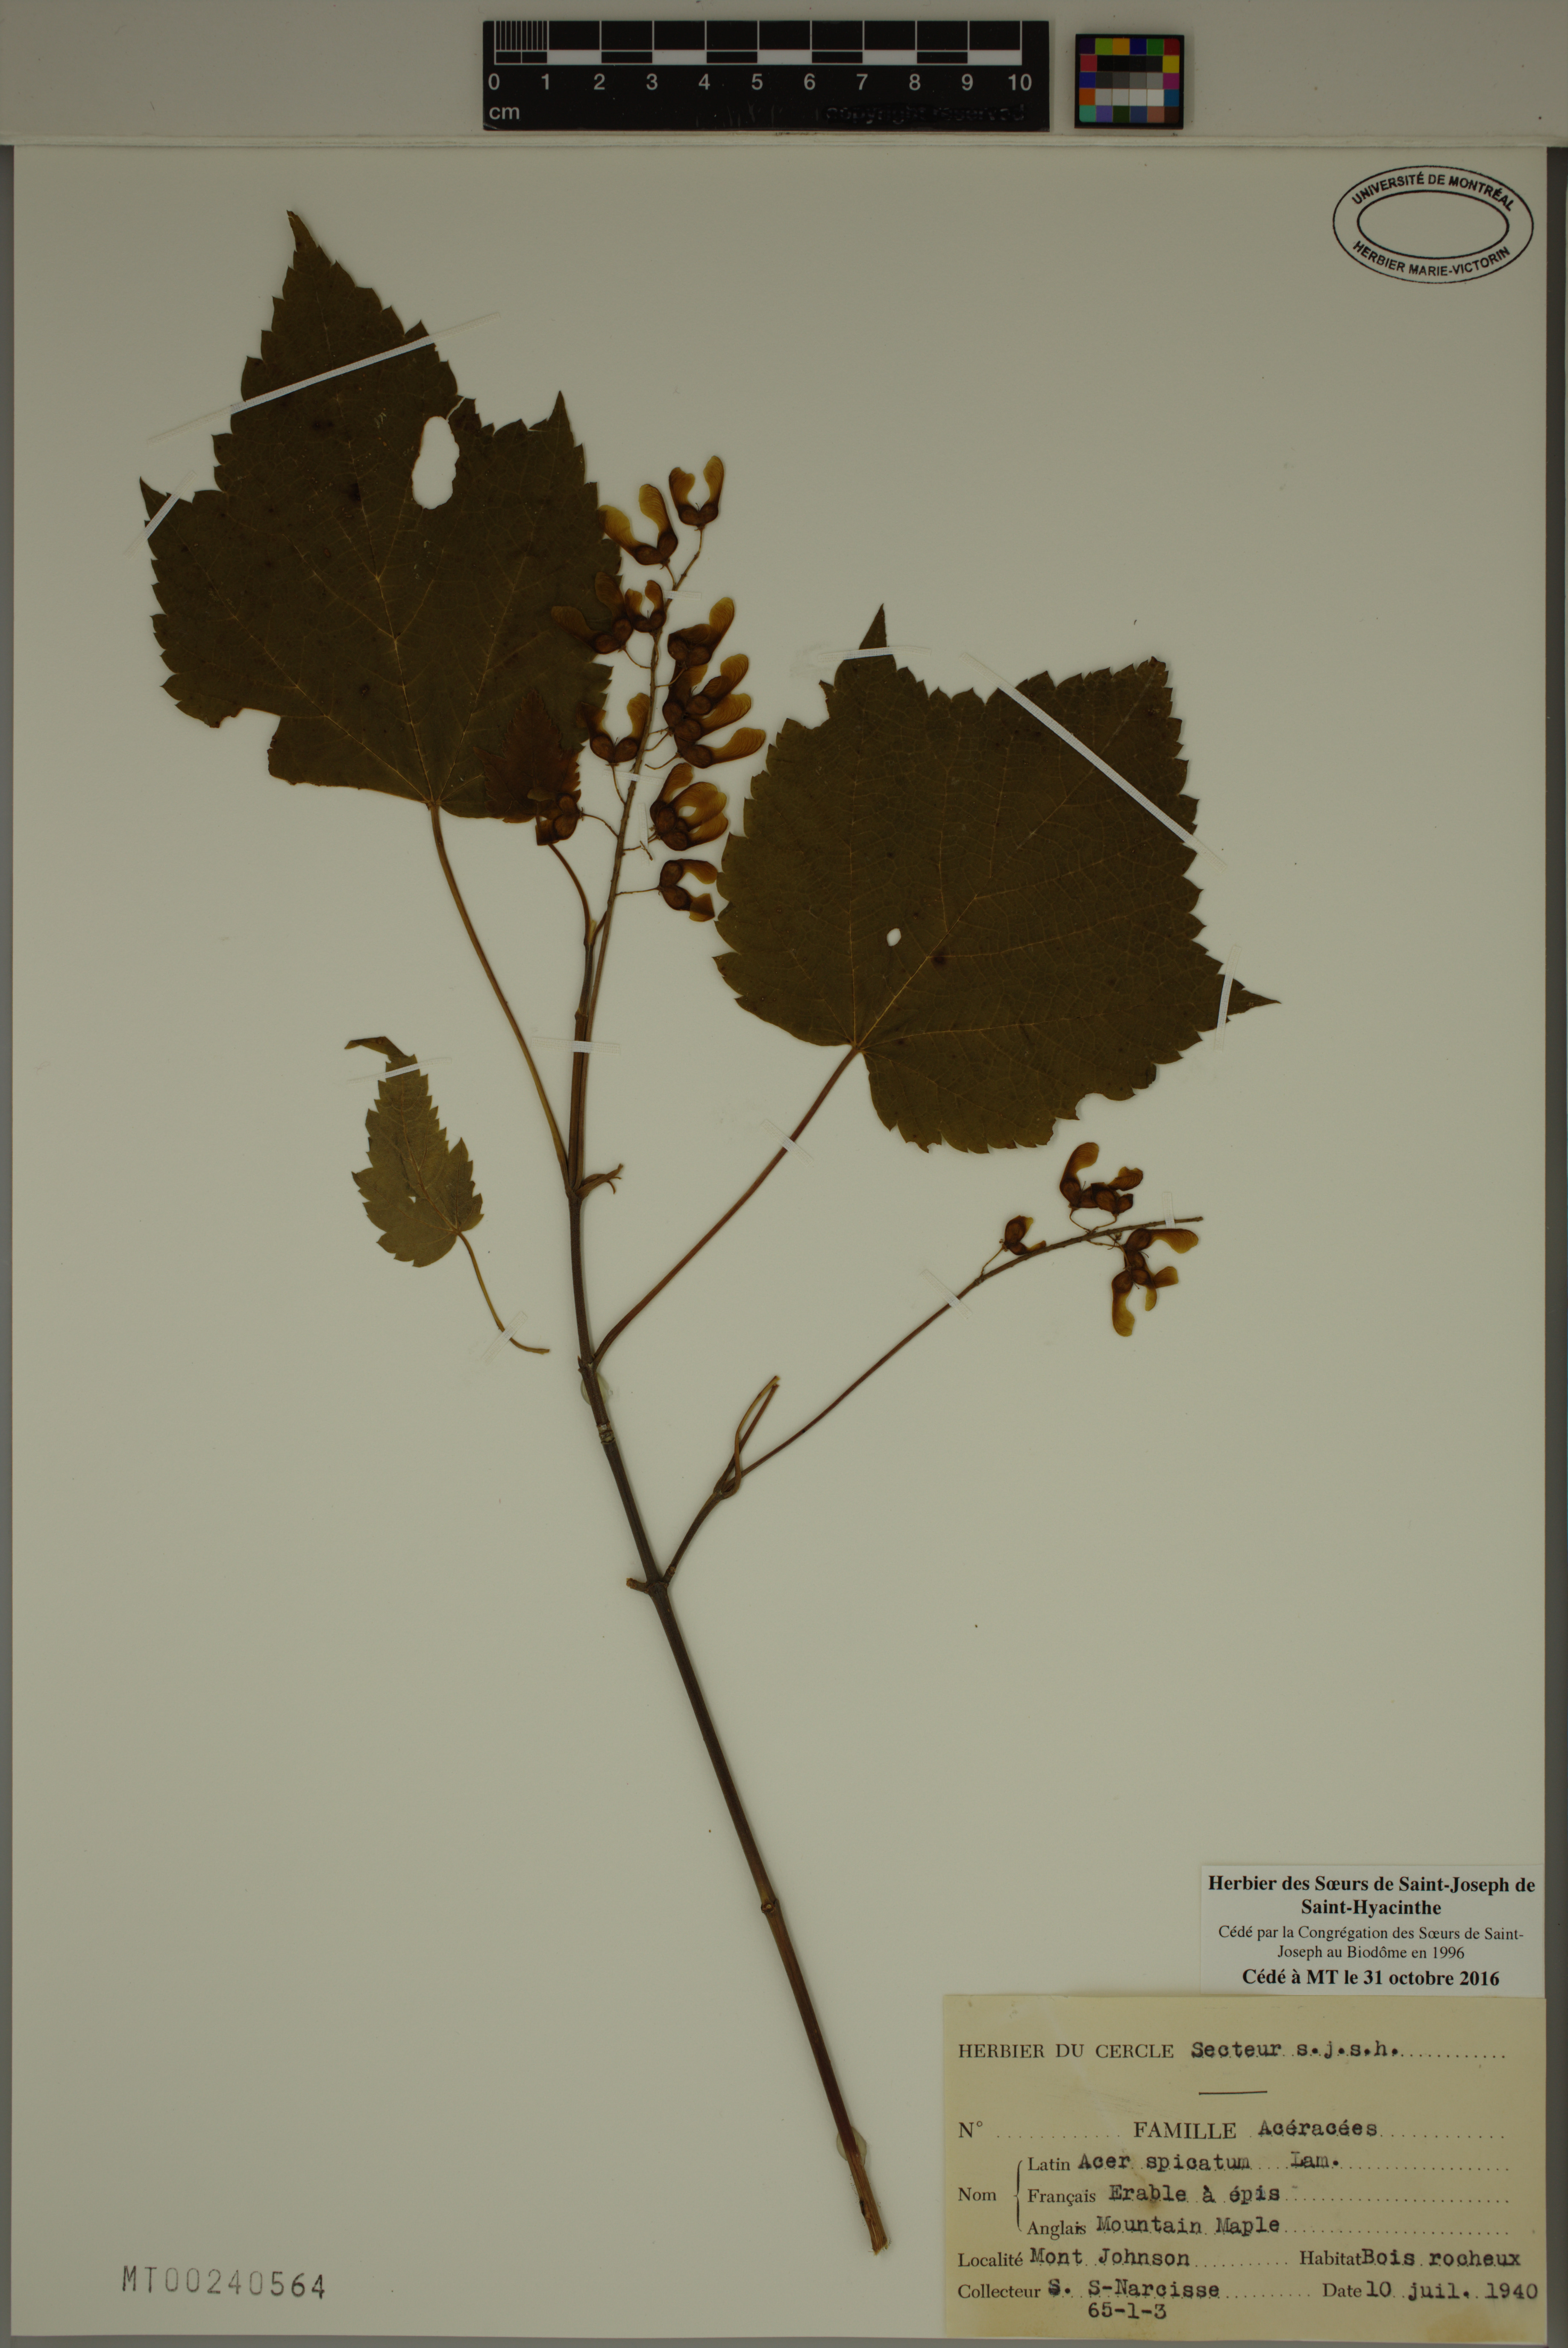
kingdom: Plantae
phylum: Tracheophyta
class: Magnoliopsida
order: Sapindales
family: Sapindaceae
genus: Acer
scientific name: Acer spicatum
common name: Mountain maple
